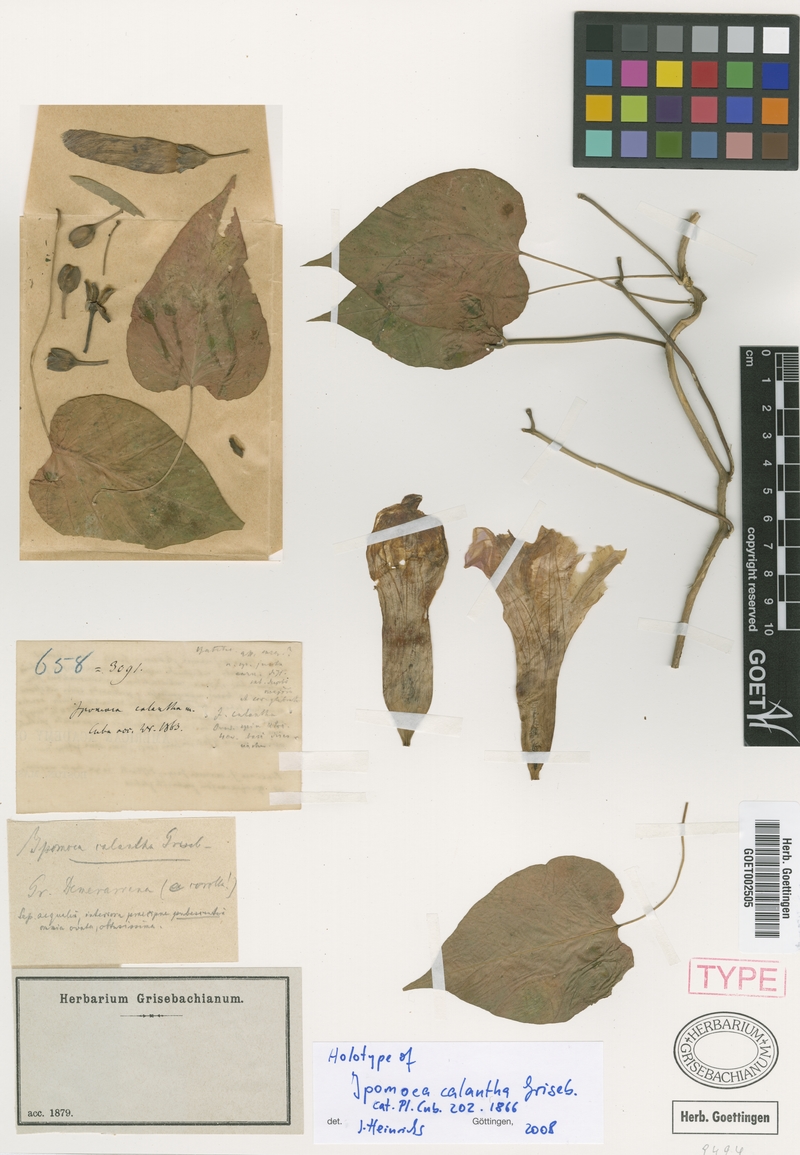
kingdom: Plantae
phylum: Tracheophyta
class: Magnoliopsida
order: Solanales
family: Convolvulaceae
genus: Ipomoea
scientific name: Ipomoea jalapa
